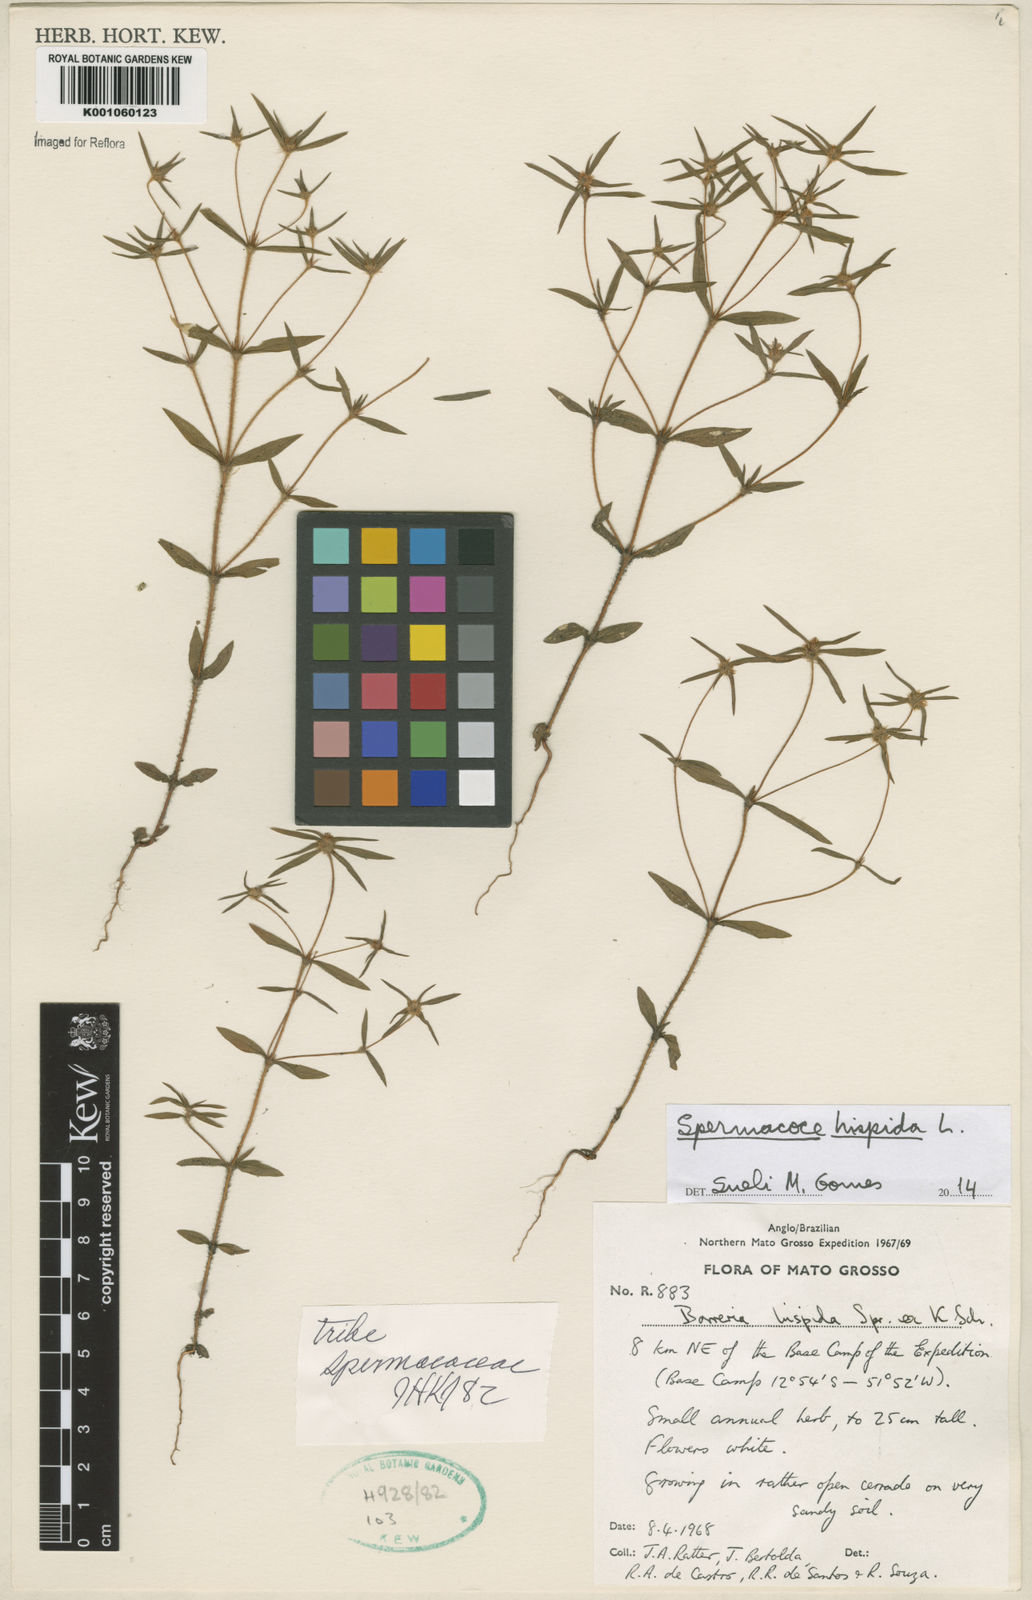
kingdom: Plantae
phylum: Tracheophyta
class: Magnoliopsida
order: Gentianales
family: Rubiaceae
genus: Spermacoce
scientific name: Spermacoce hispida
